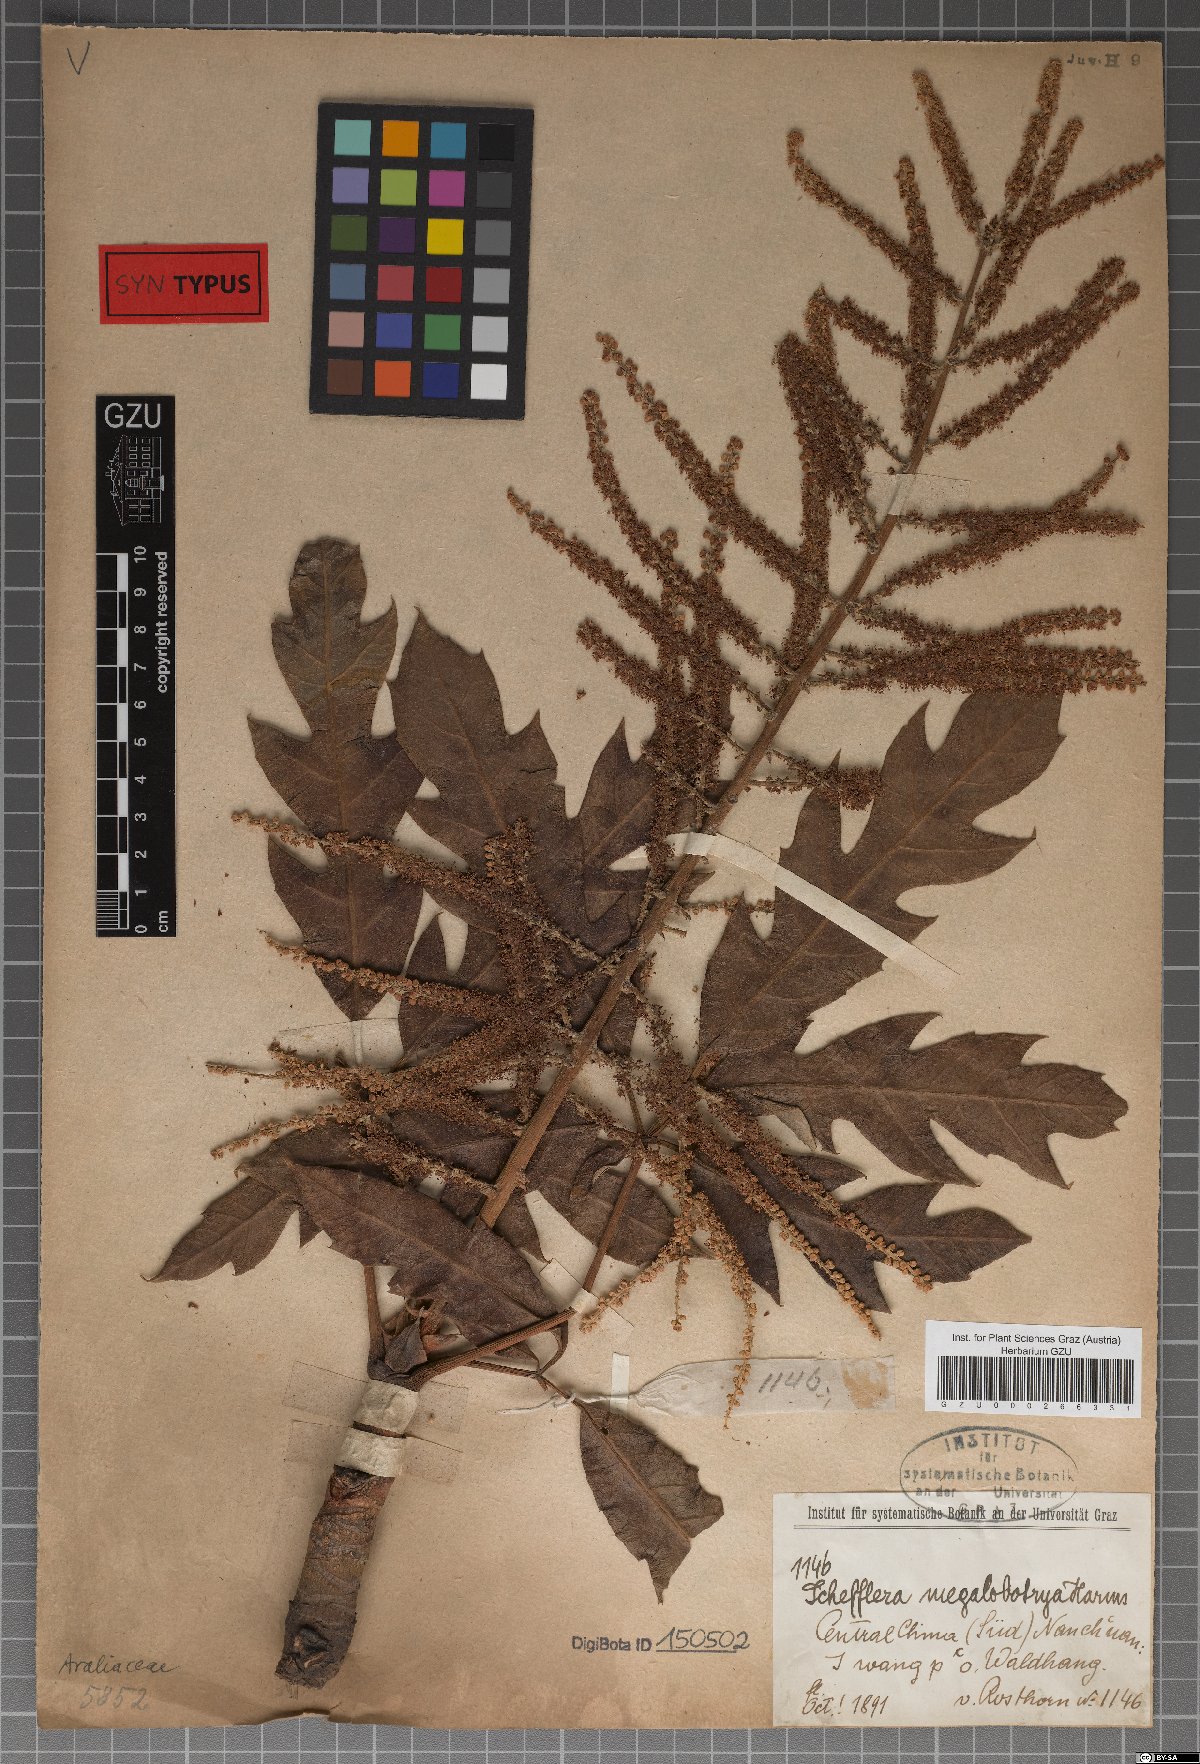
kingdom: Plantae
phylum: Tracheophyta
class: Magnoliopsida
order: Apiales
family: Araliaceae
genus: Schefflera
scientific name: Schefflera megalobotrya
